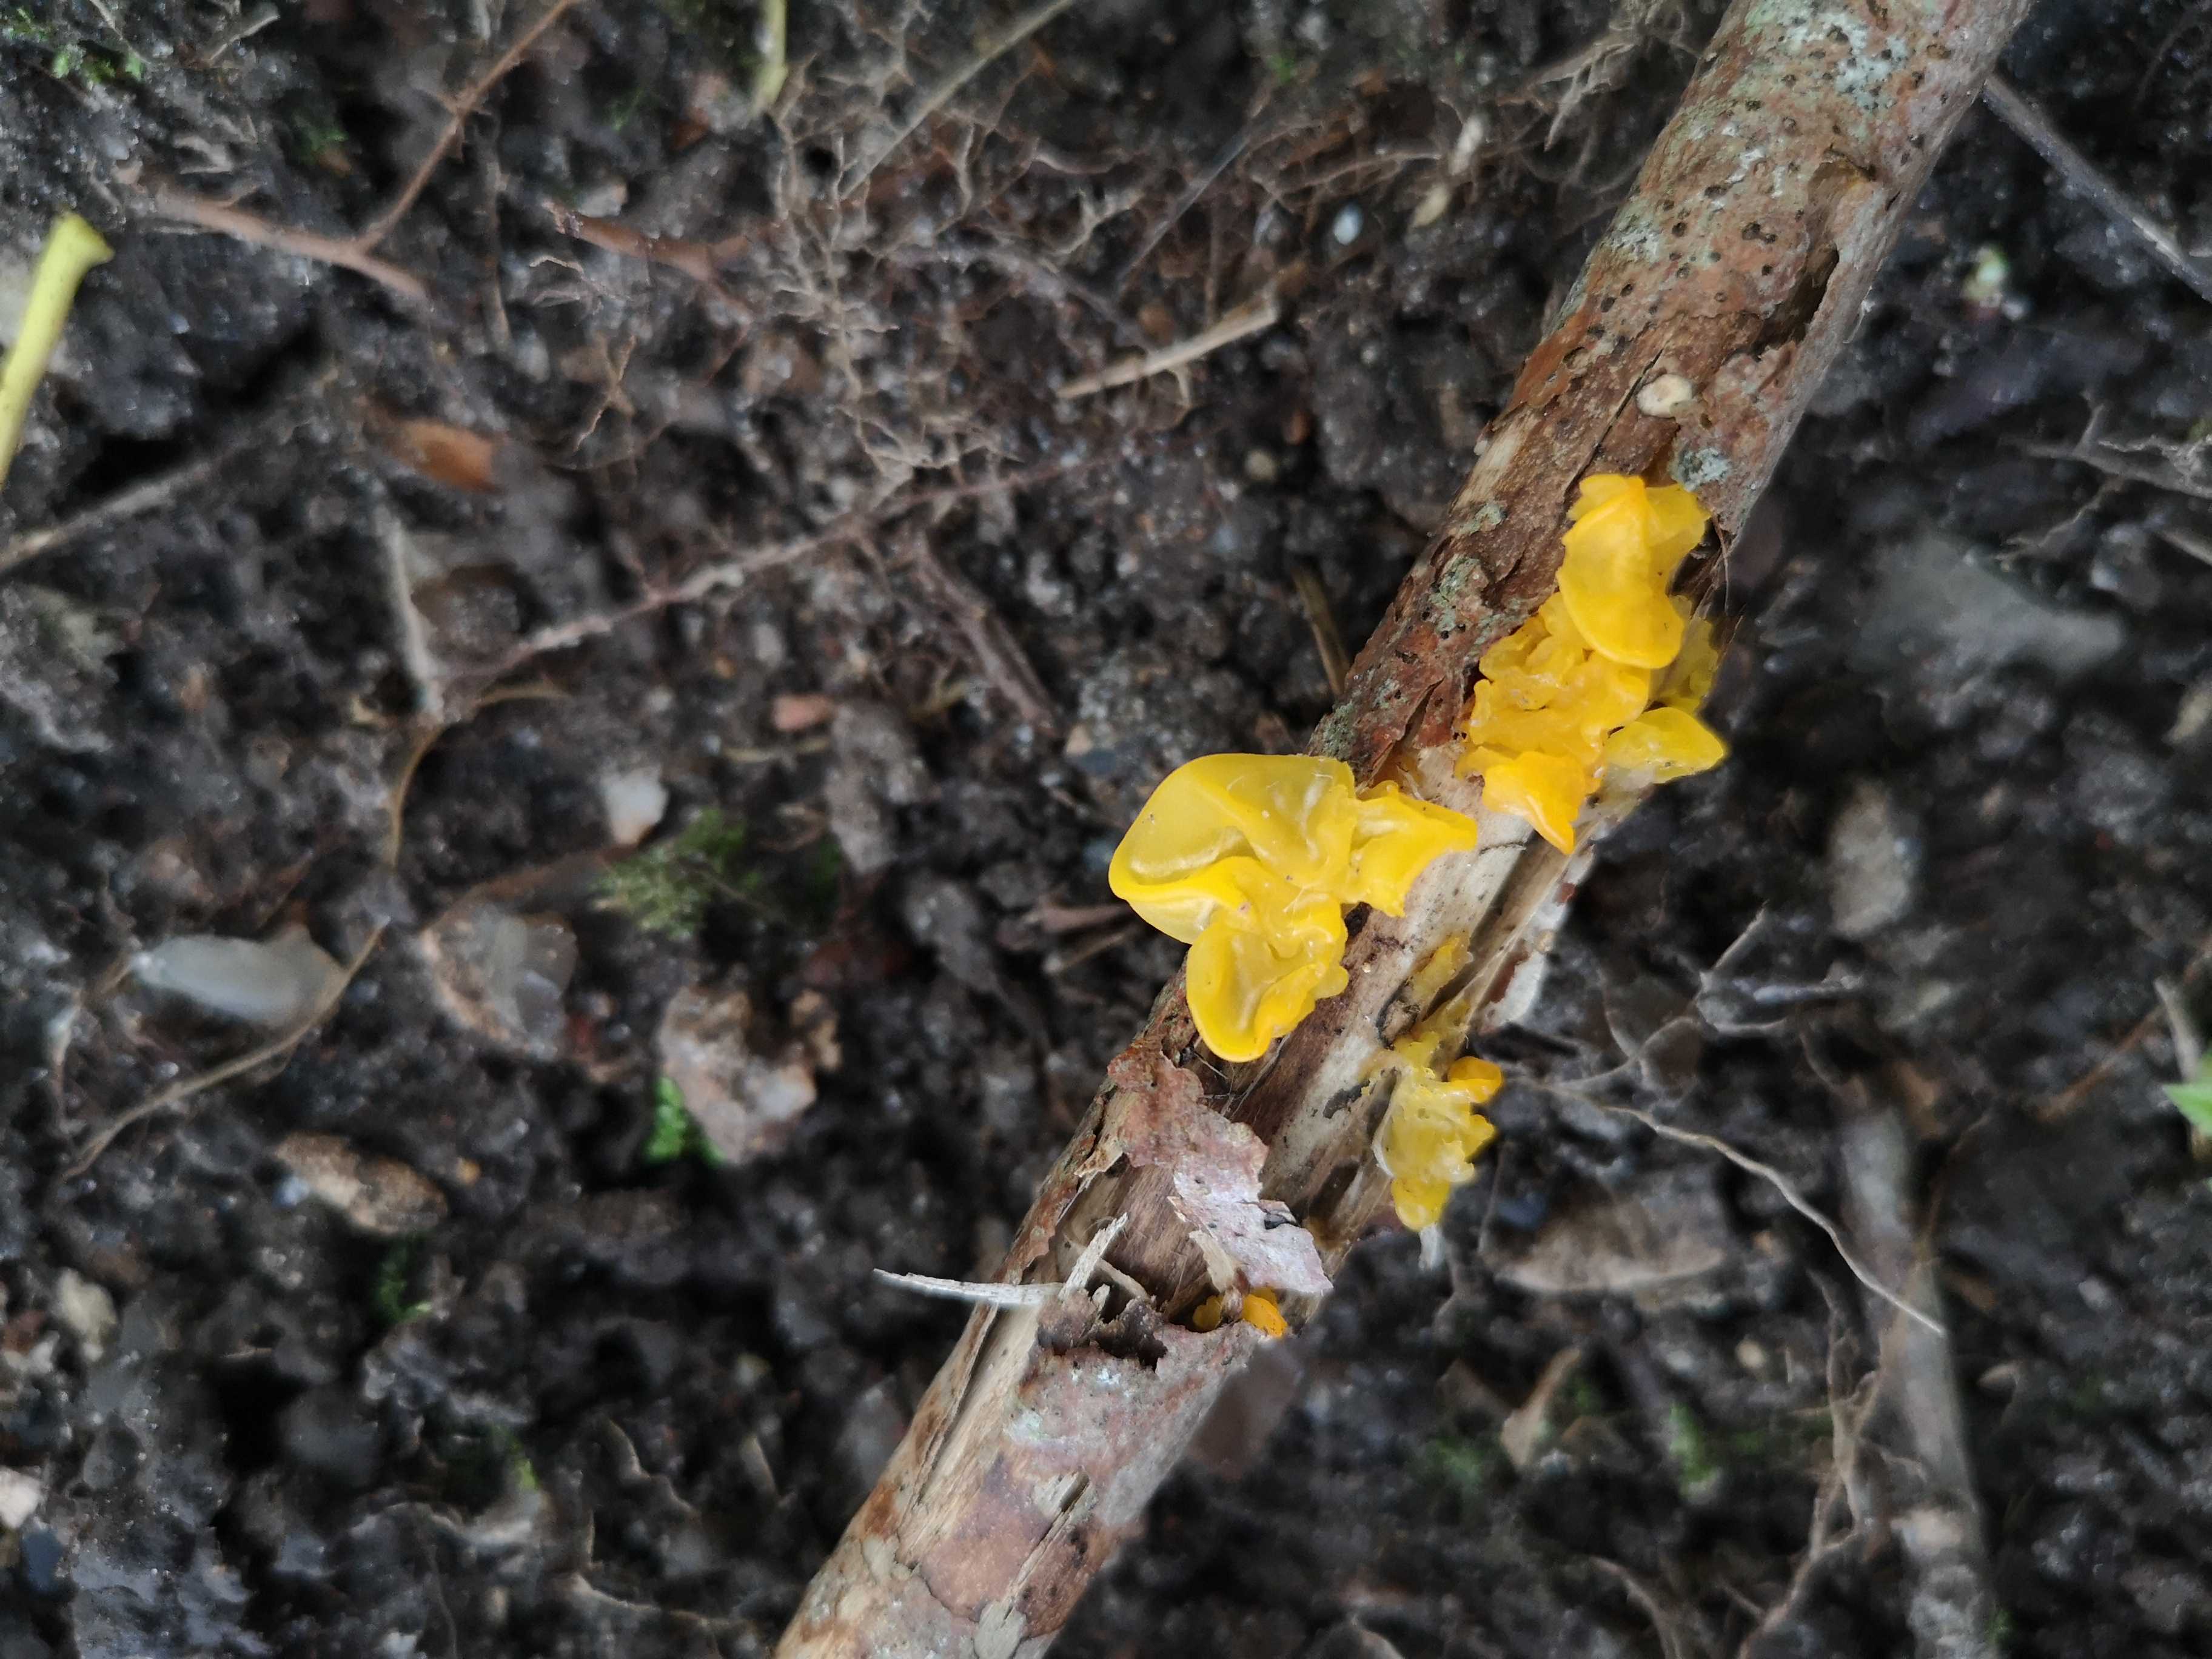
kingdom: Fungi
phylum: Basidiomycota
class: Tremellomycetes
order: Tremellales
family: Tremellaceae
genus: Tremella
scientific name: Tremella mesenterica
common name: gul bævresvamp
